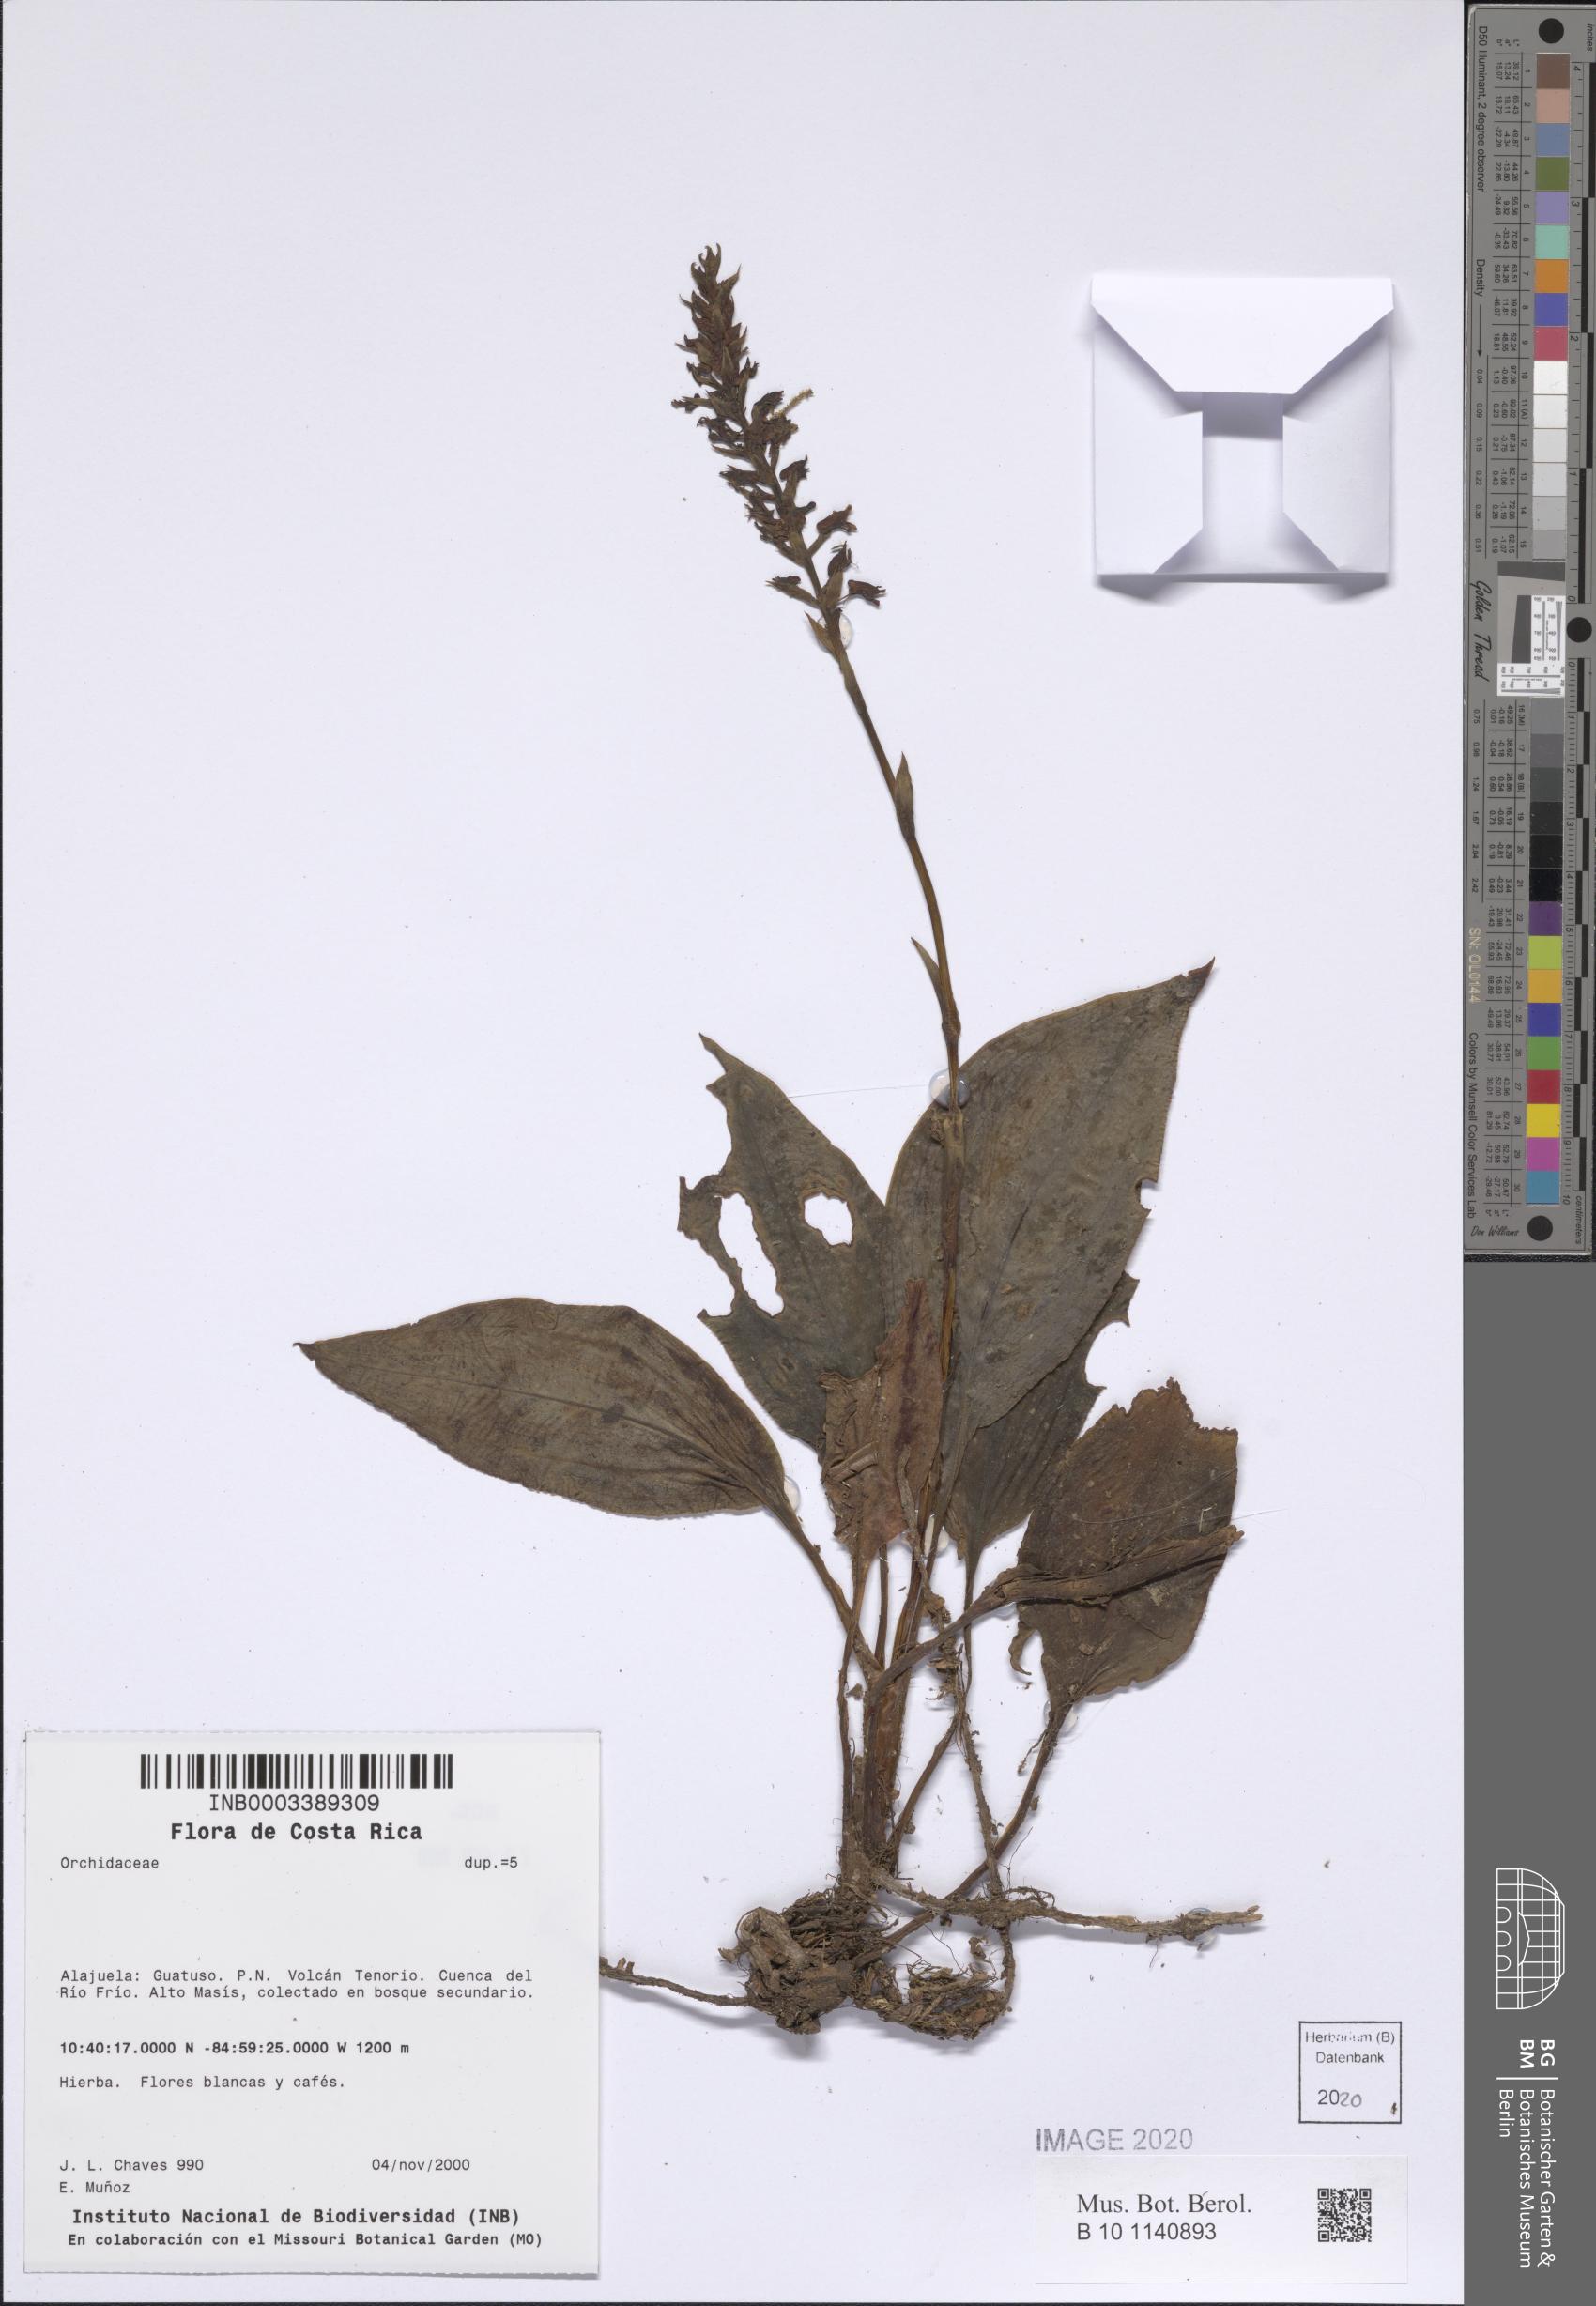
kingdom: Plantae
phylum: Tracheophyta
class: Liliopsida
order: Asparagales
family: Orchidaceae
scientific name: Orchidaceae
